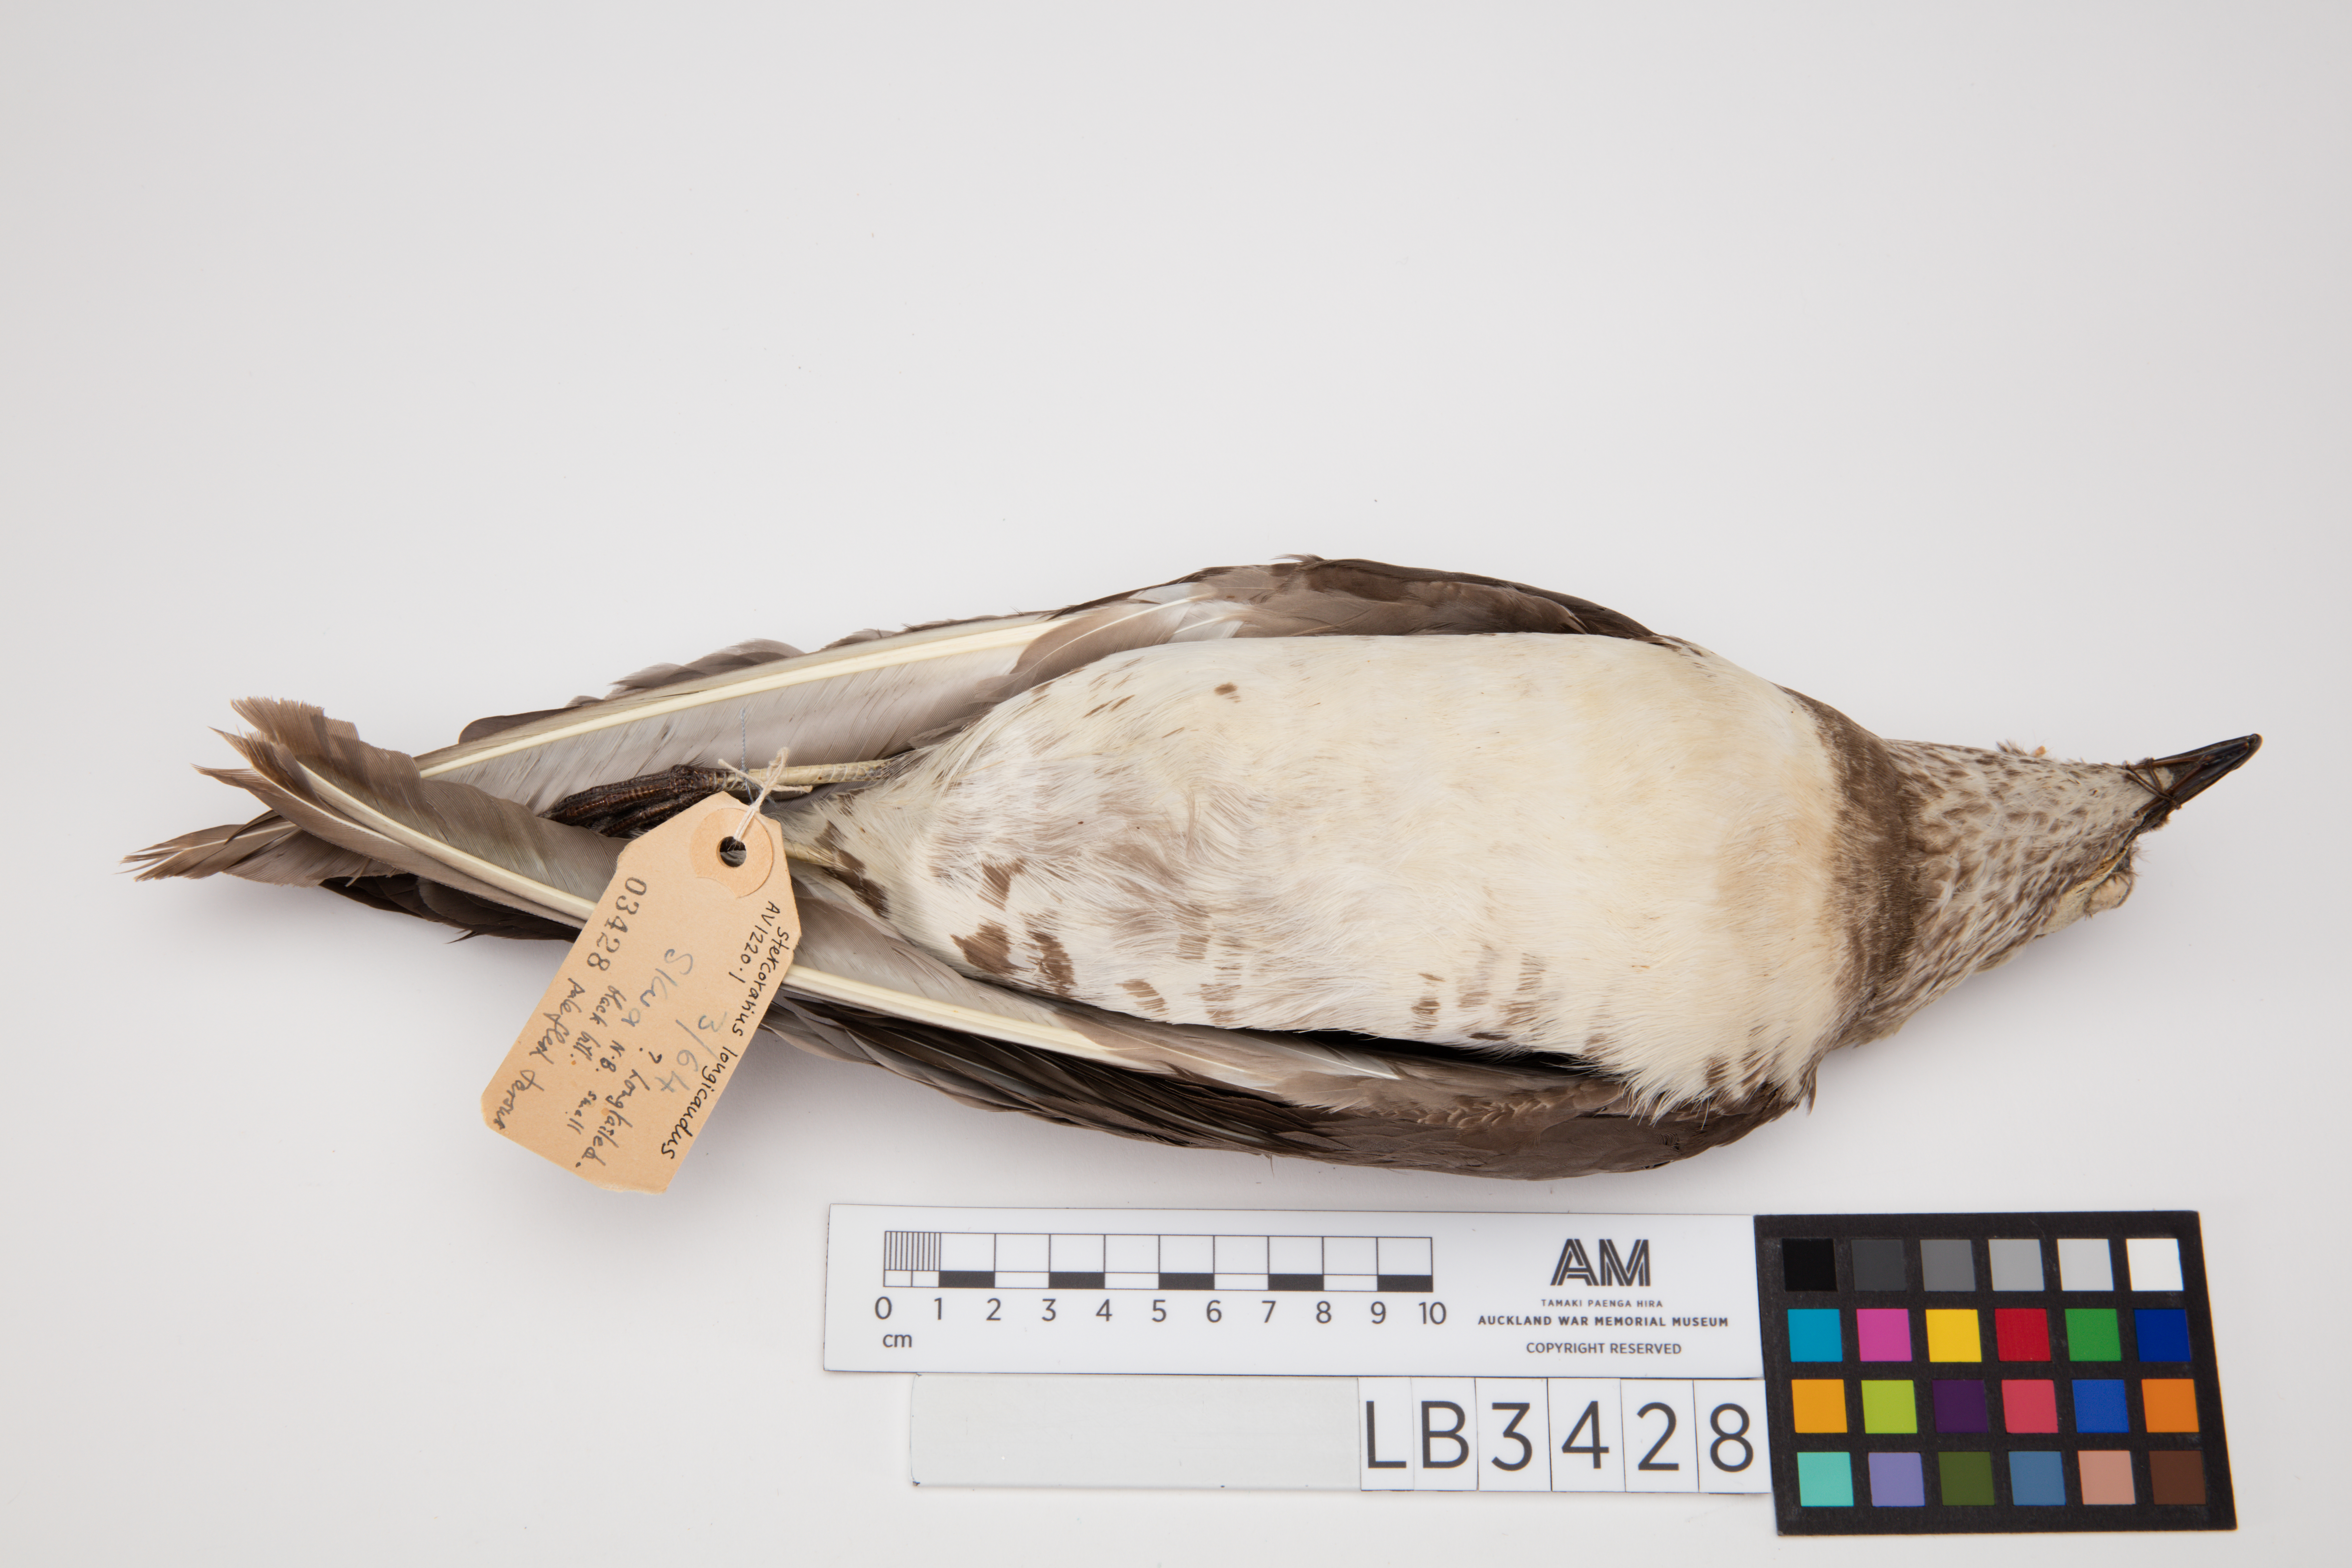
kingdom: Animalia
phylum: Chordata
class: Aves
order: Charadriiformes
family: Stercorariidae
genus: Stercorarius
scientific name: Stercorarius longicaudus
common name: Long-tailed jaeger
